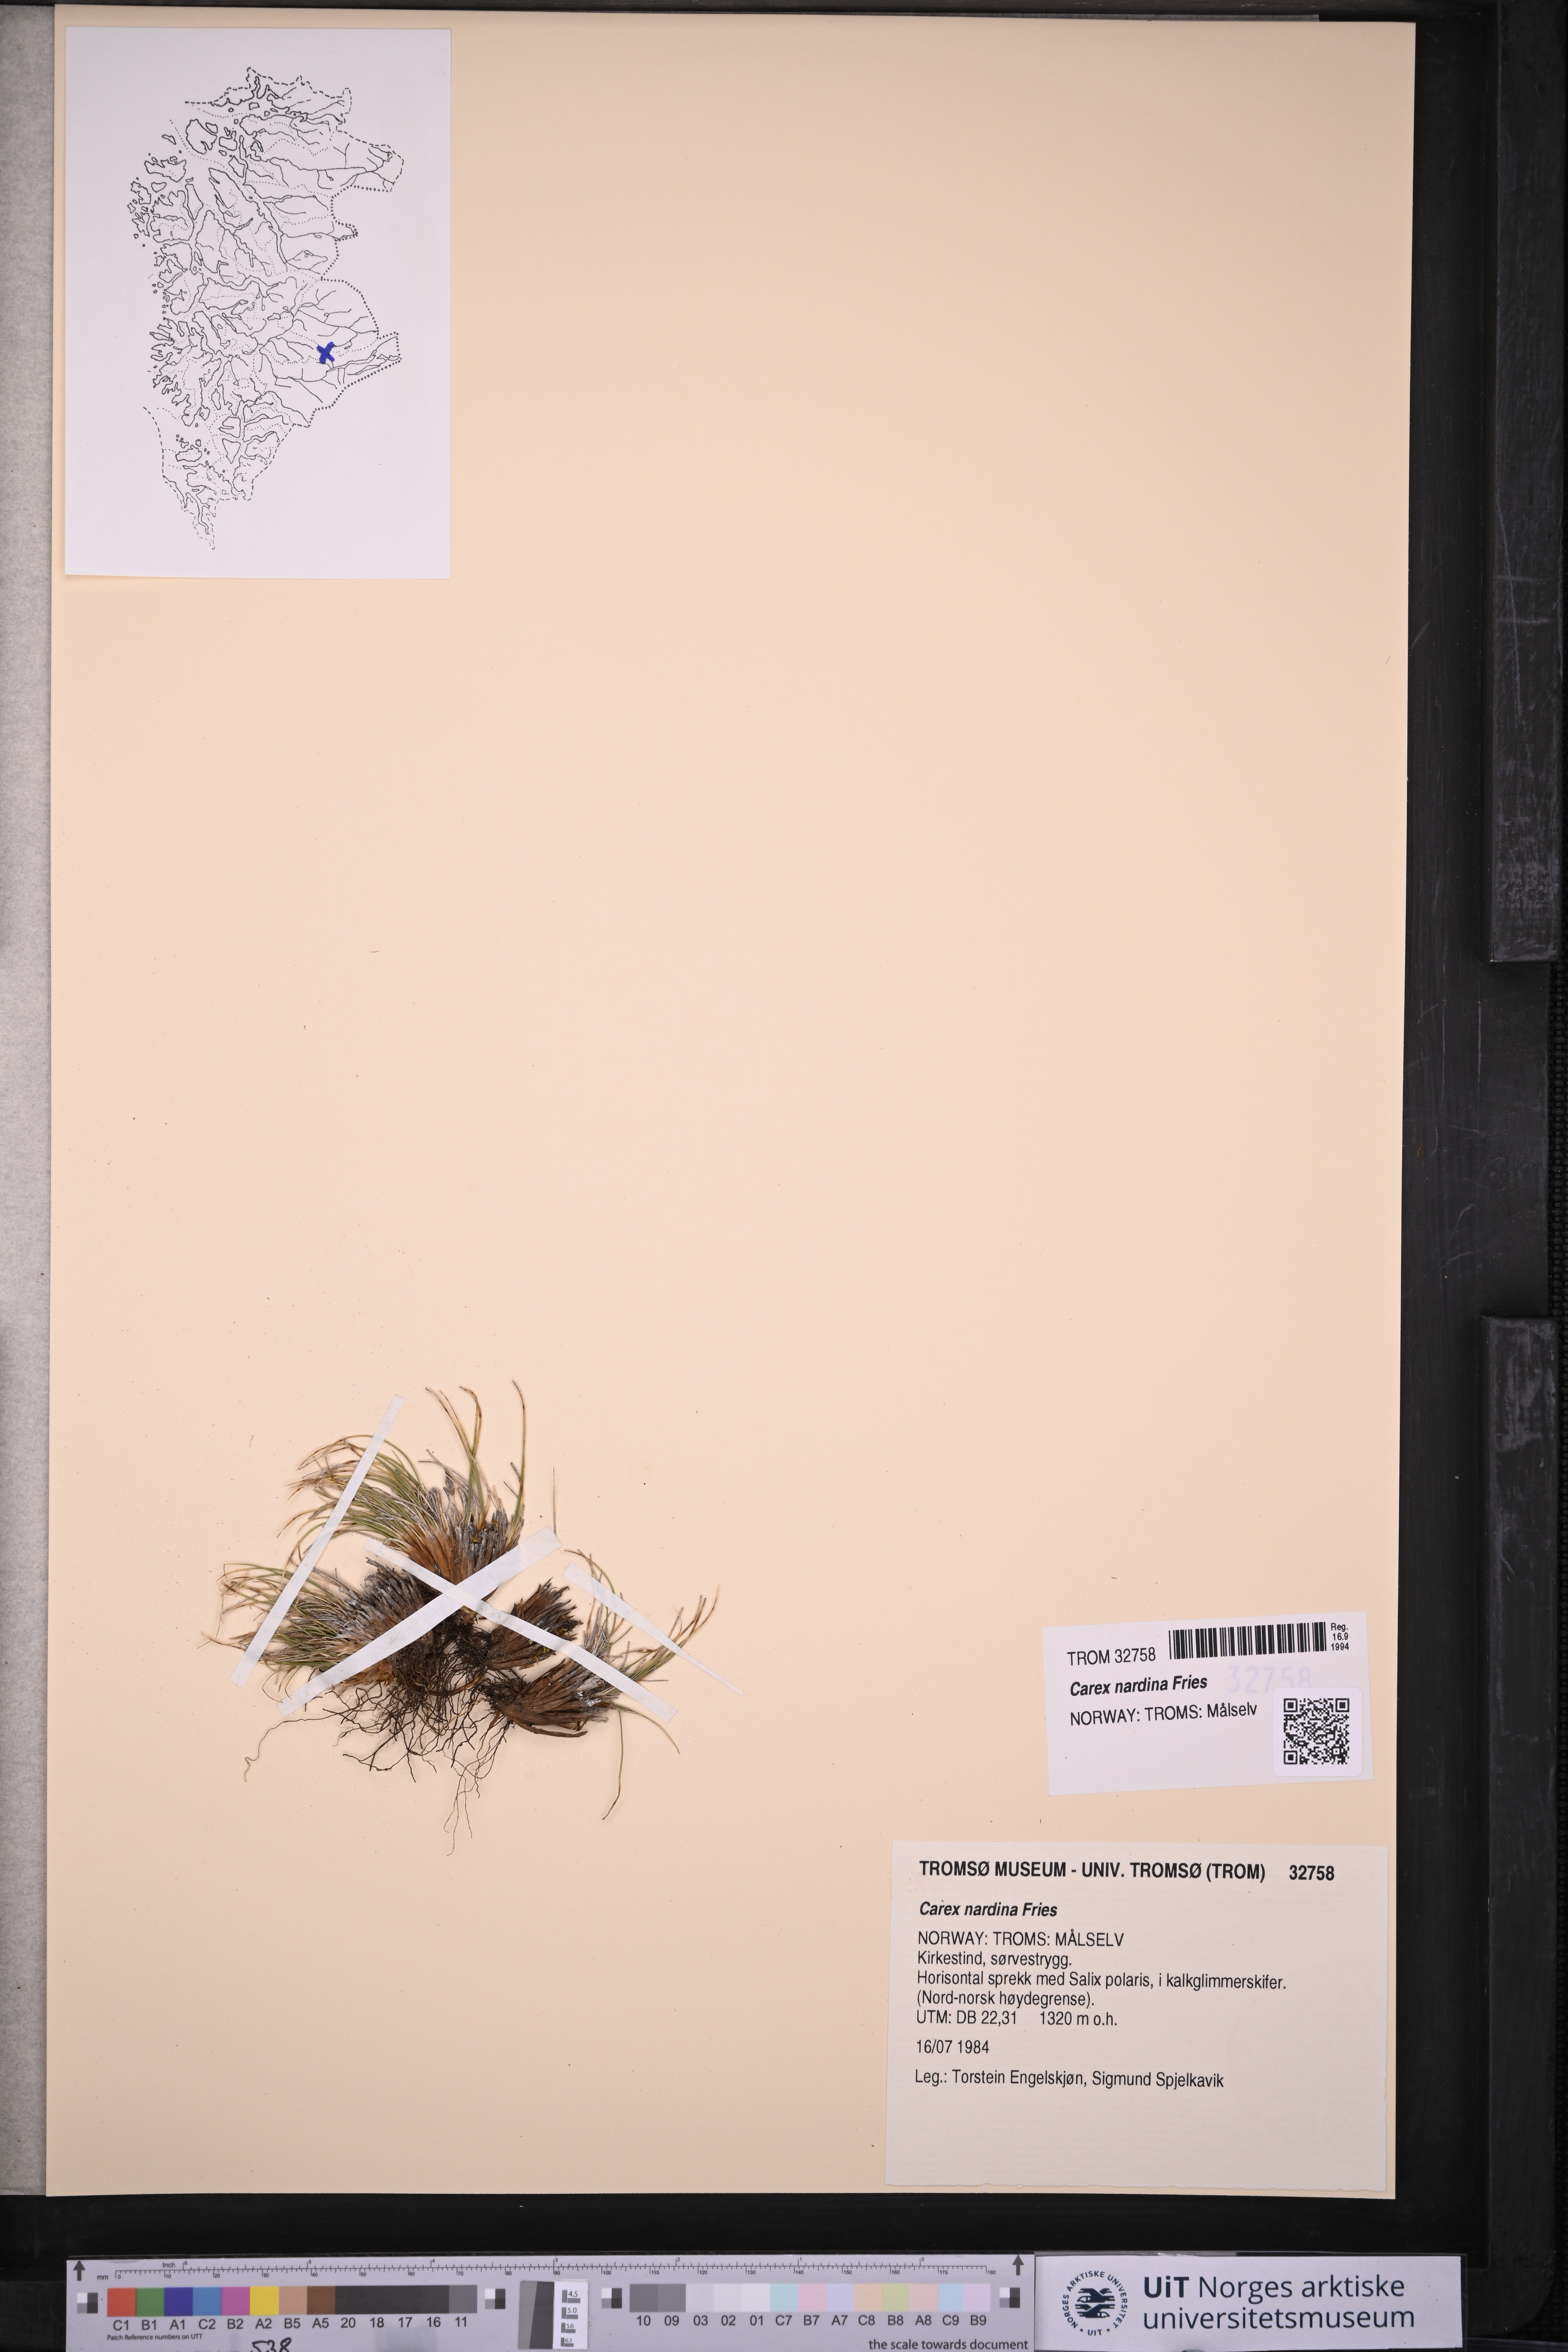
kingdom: Plantae
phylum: Tracheophyta
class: Liliopsida
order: Poales
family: Cyperaceae
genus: Carex
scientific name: Carex nardina
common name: Nard sedge
